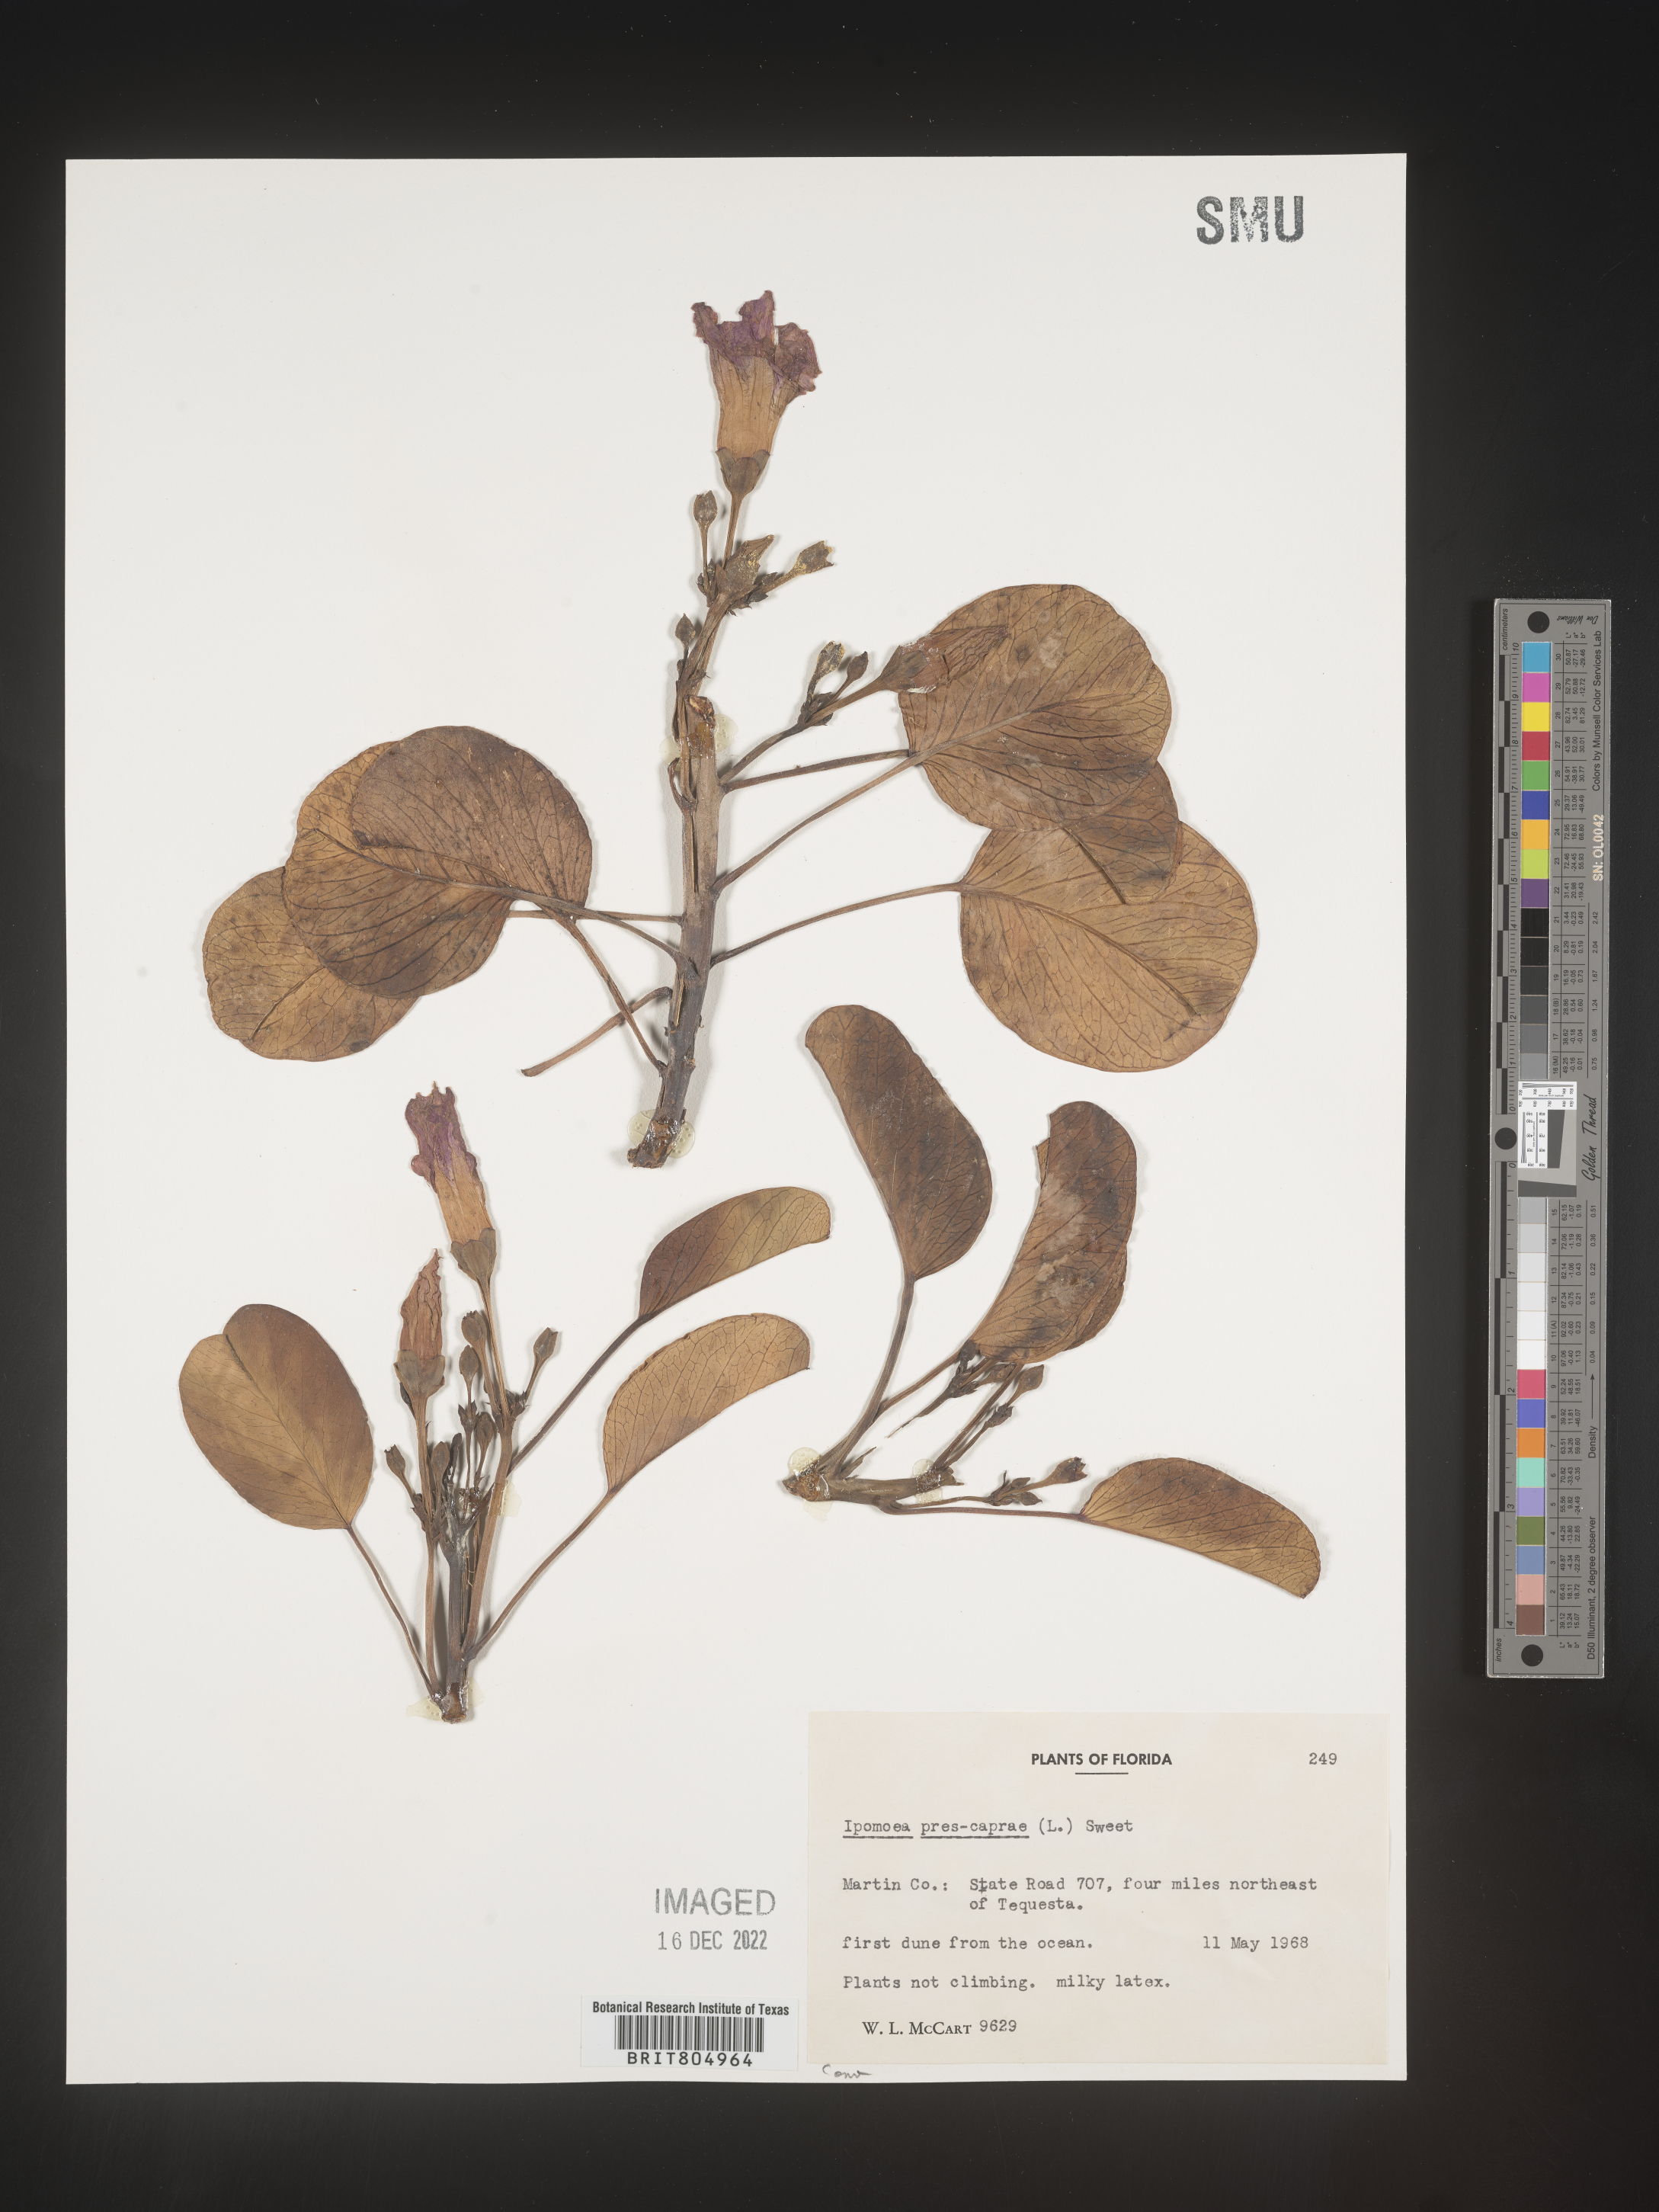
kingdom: Plantae
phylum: Tracheophyta
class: Magnoliopsida
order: Solanales
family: Convolvulaceae
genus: Ipomoea
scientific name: Ipomoea pes-caprae
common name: Beach morning glory
